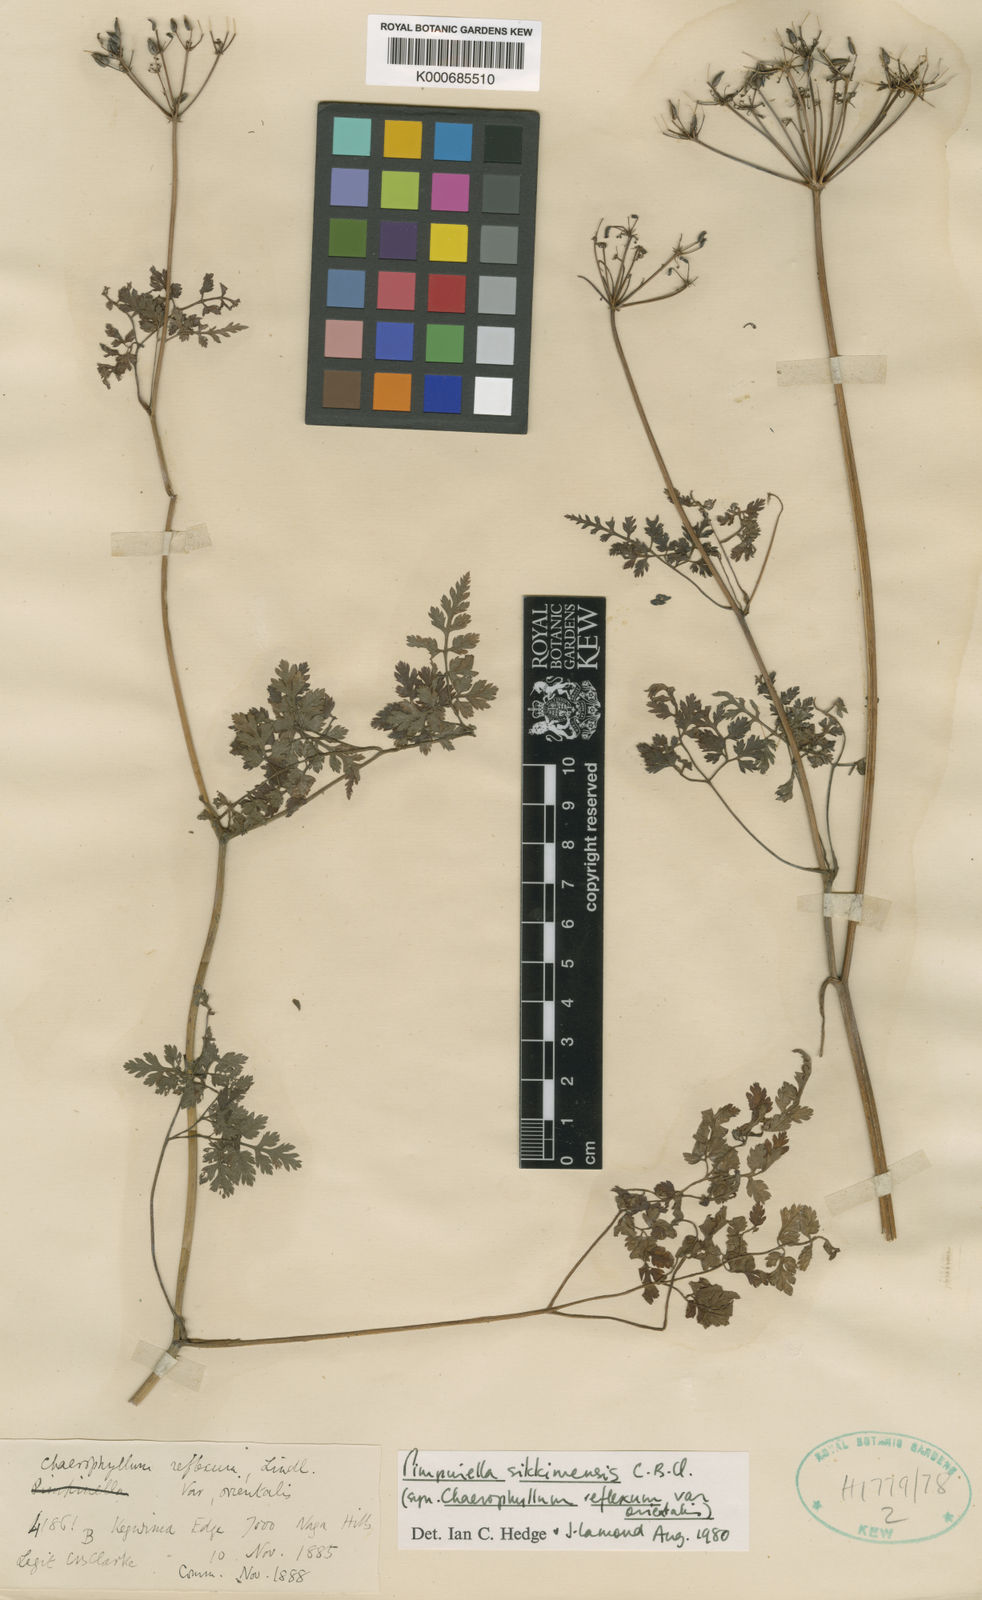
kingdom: Plantae
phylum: Tracheophyta
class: Magnoliopsida
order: Apiales
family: Apiaceae
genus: Pimpinella
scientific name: Pimpinella sikkimensis
